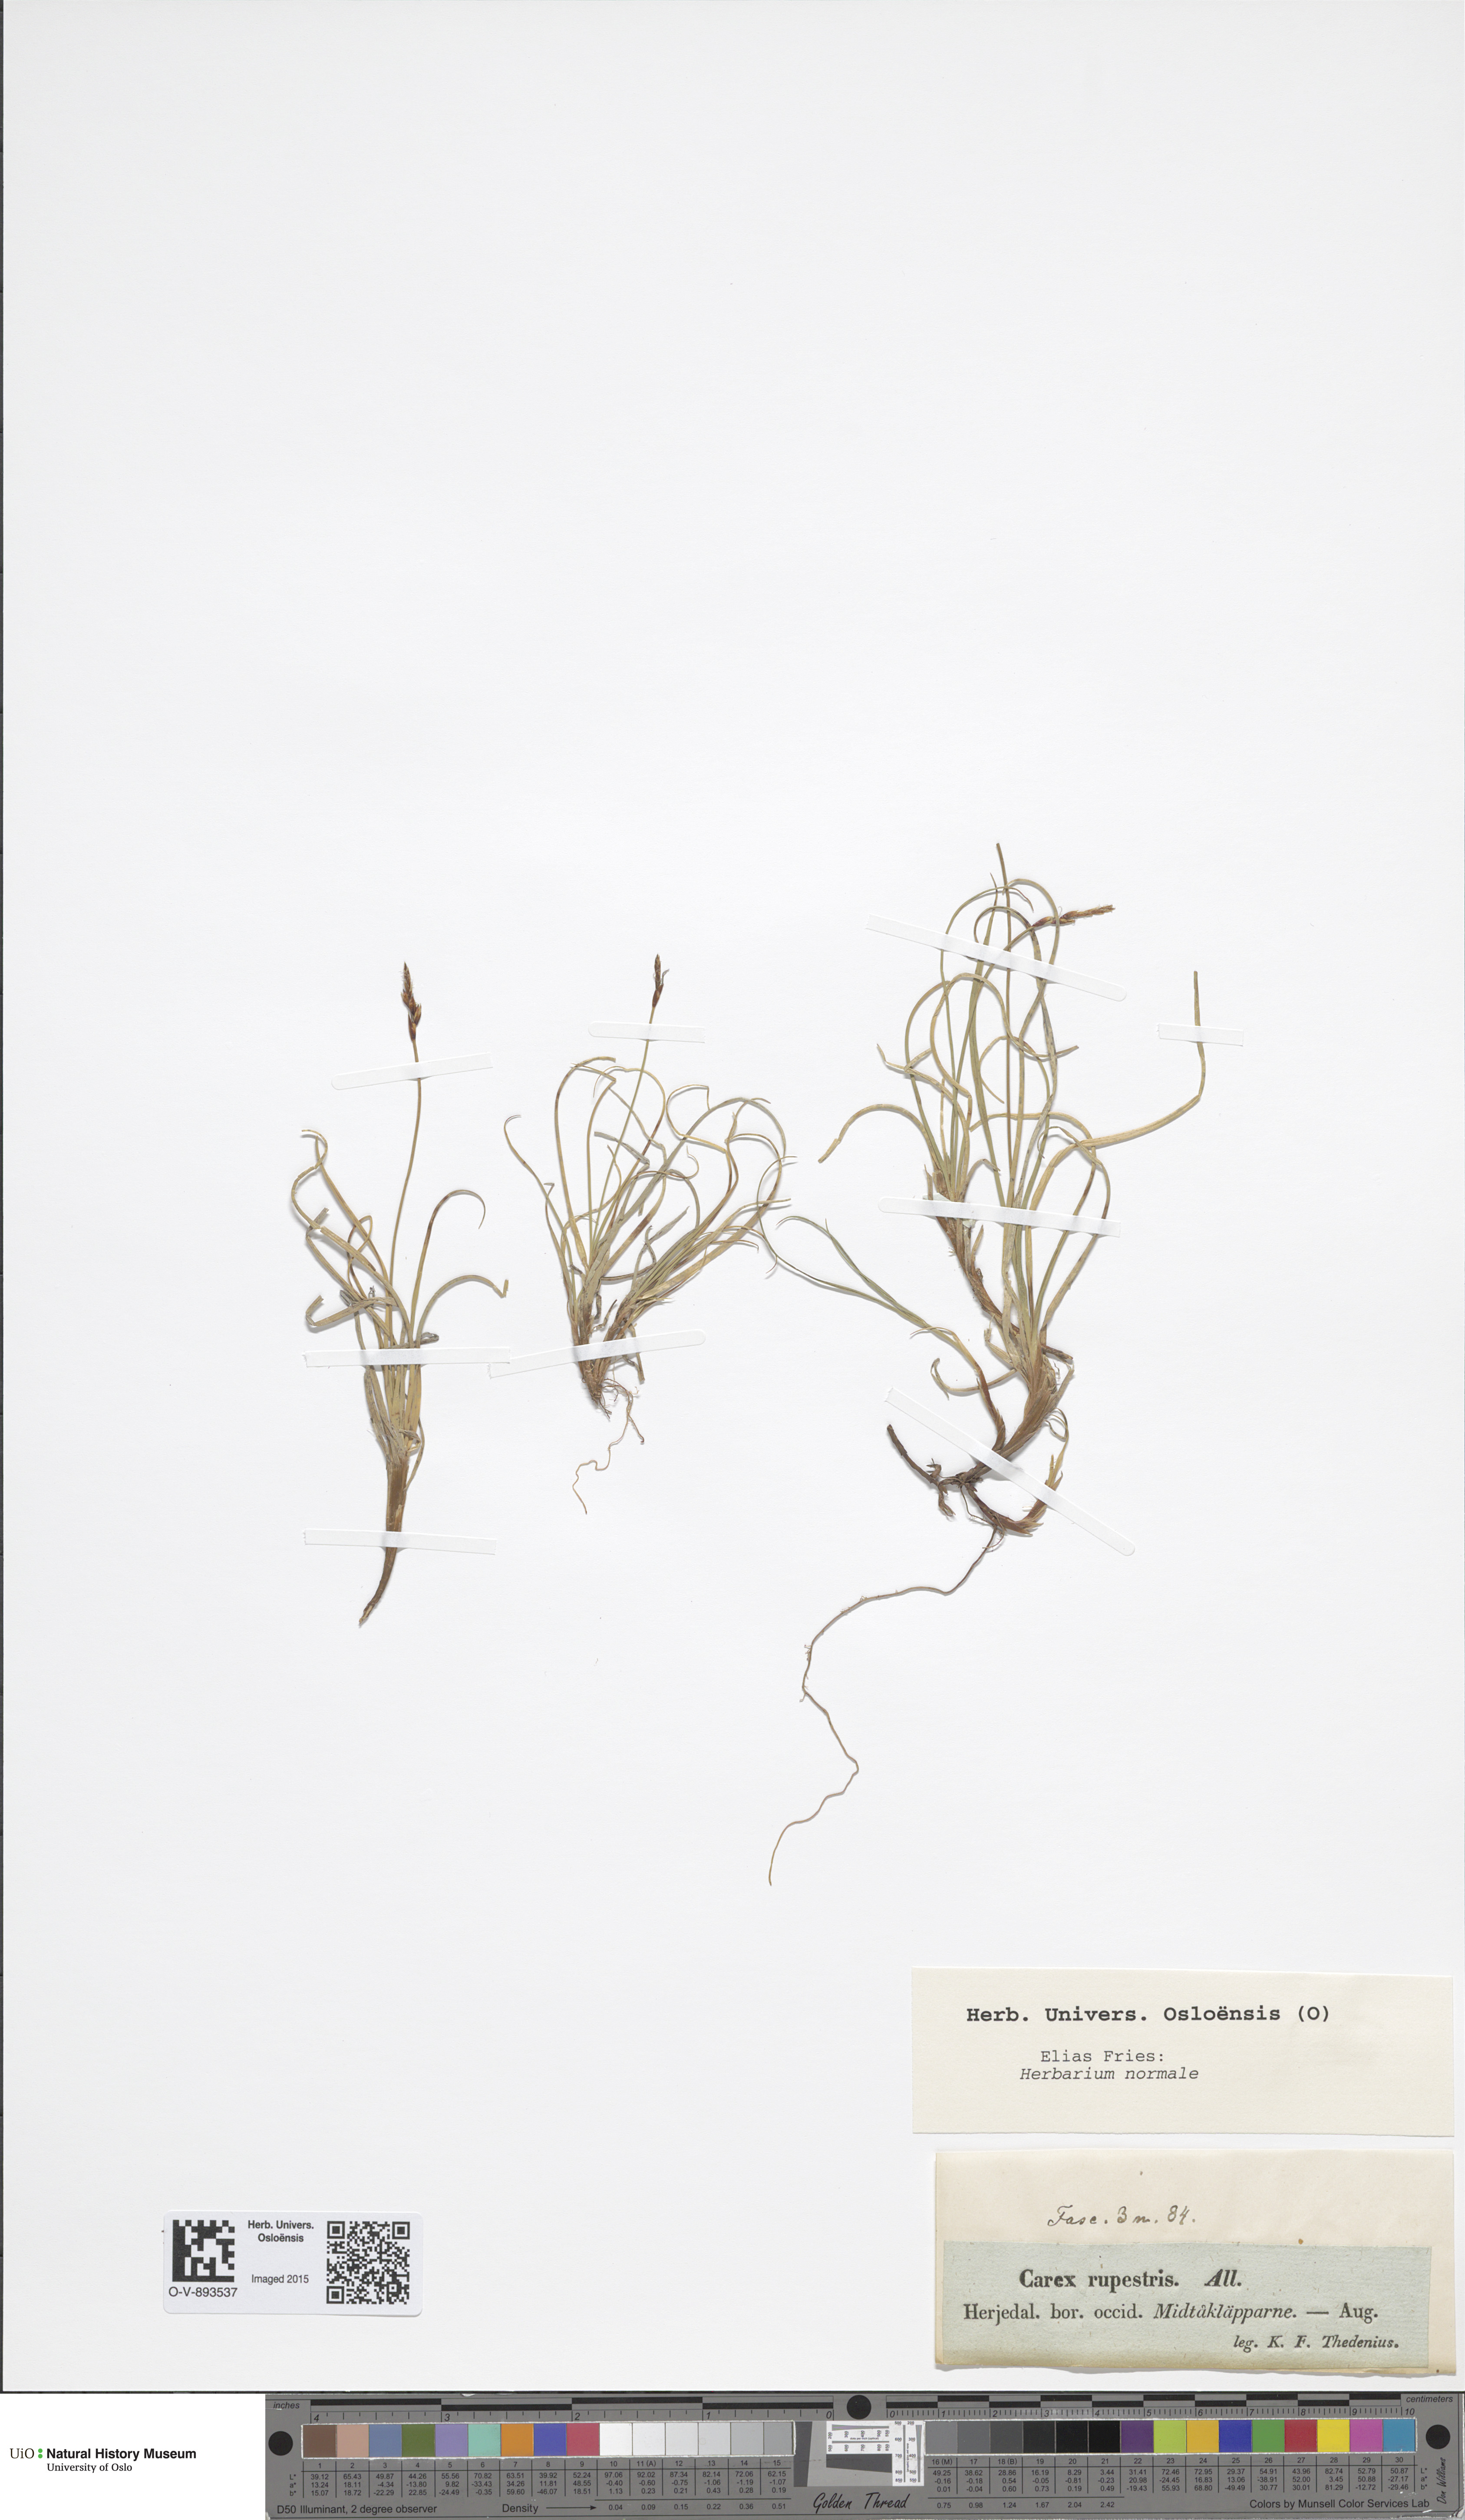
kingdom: Plantae
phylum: Tracheophyta
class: Liliopsida
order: Poales
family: Cyperaceae
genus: Carex
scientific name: Carex rupestris
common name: Rock sedge
